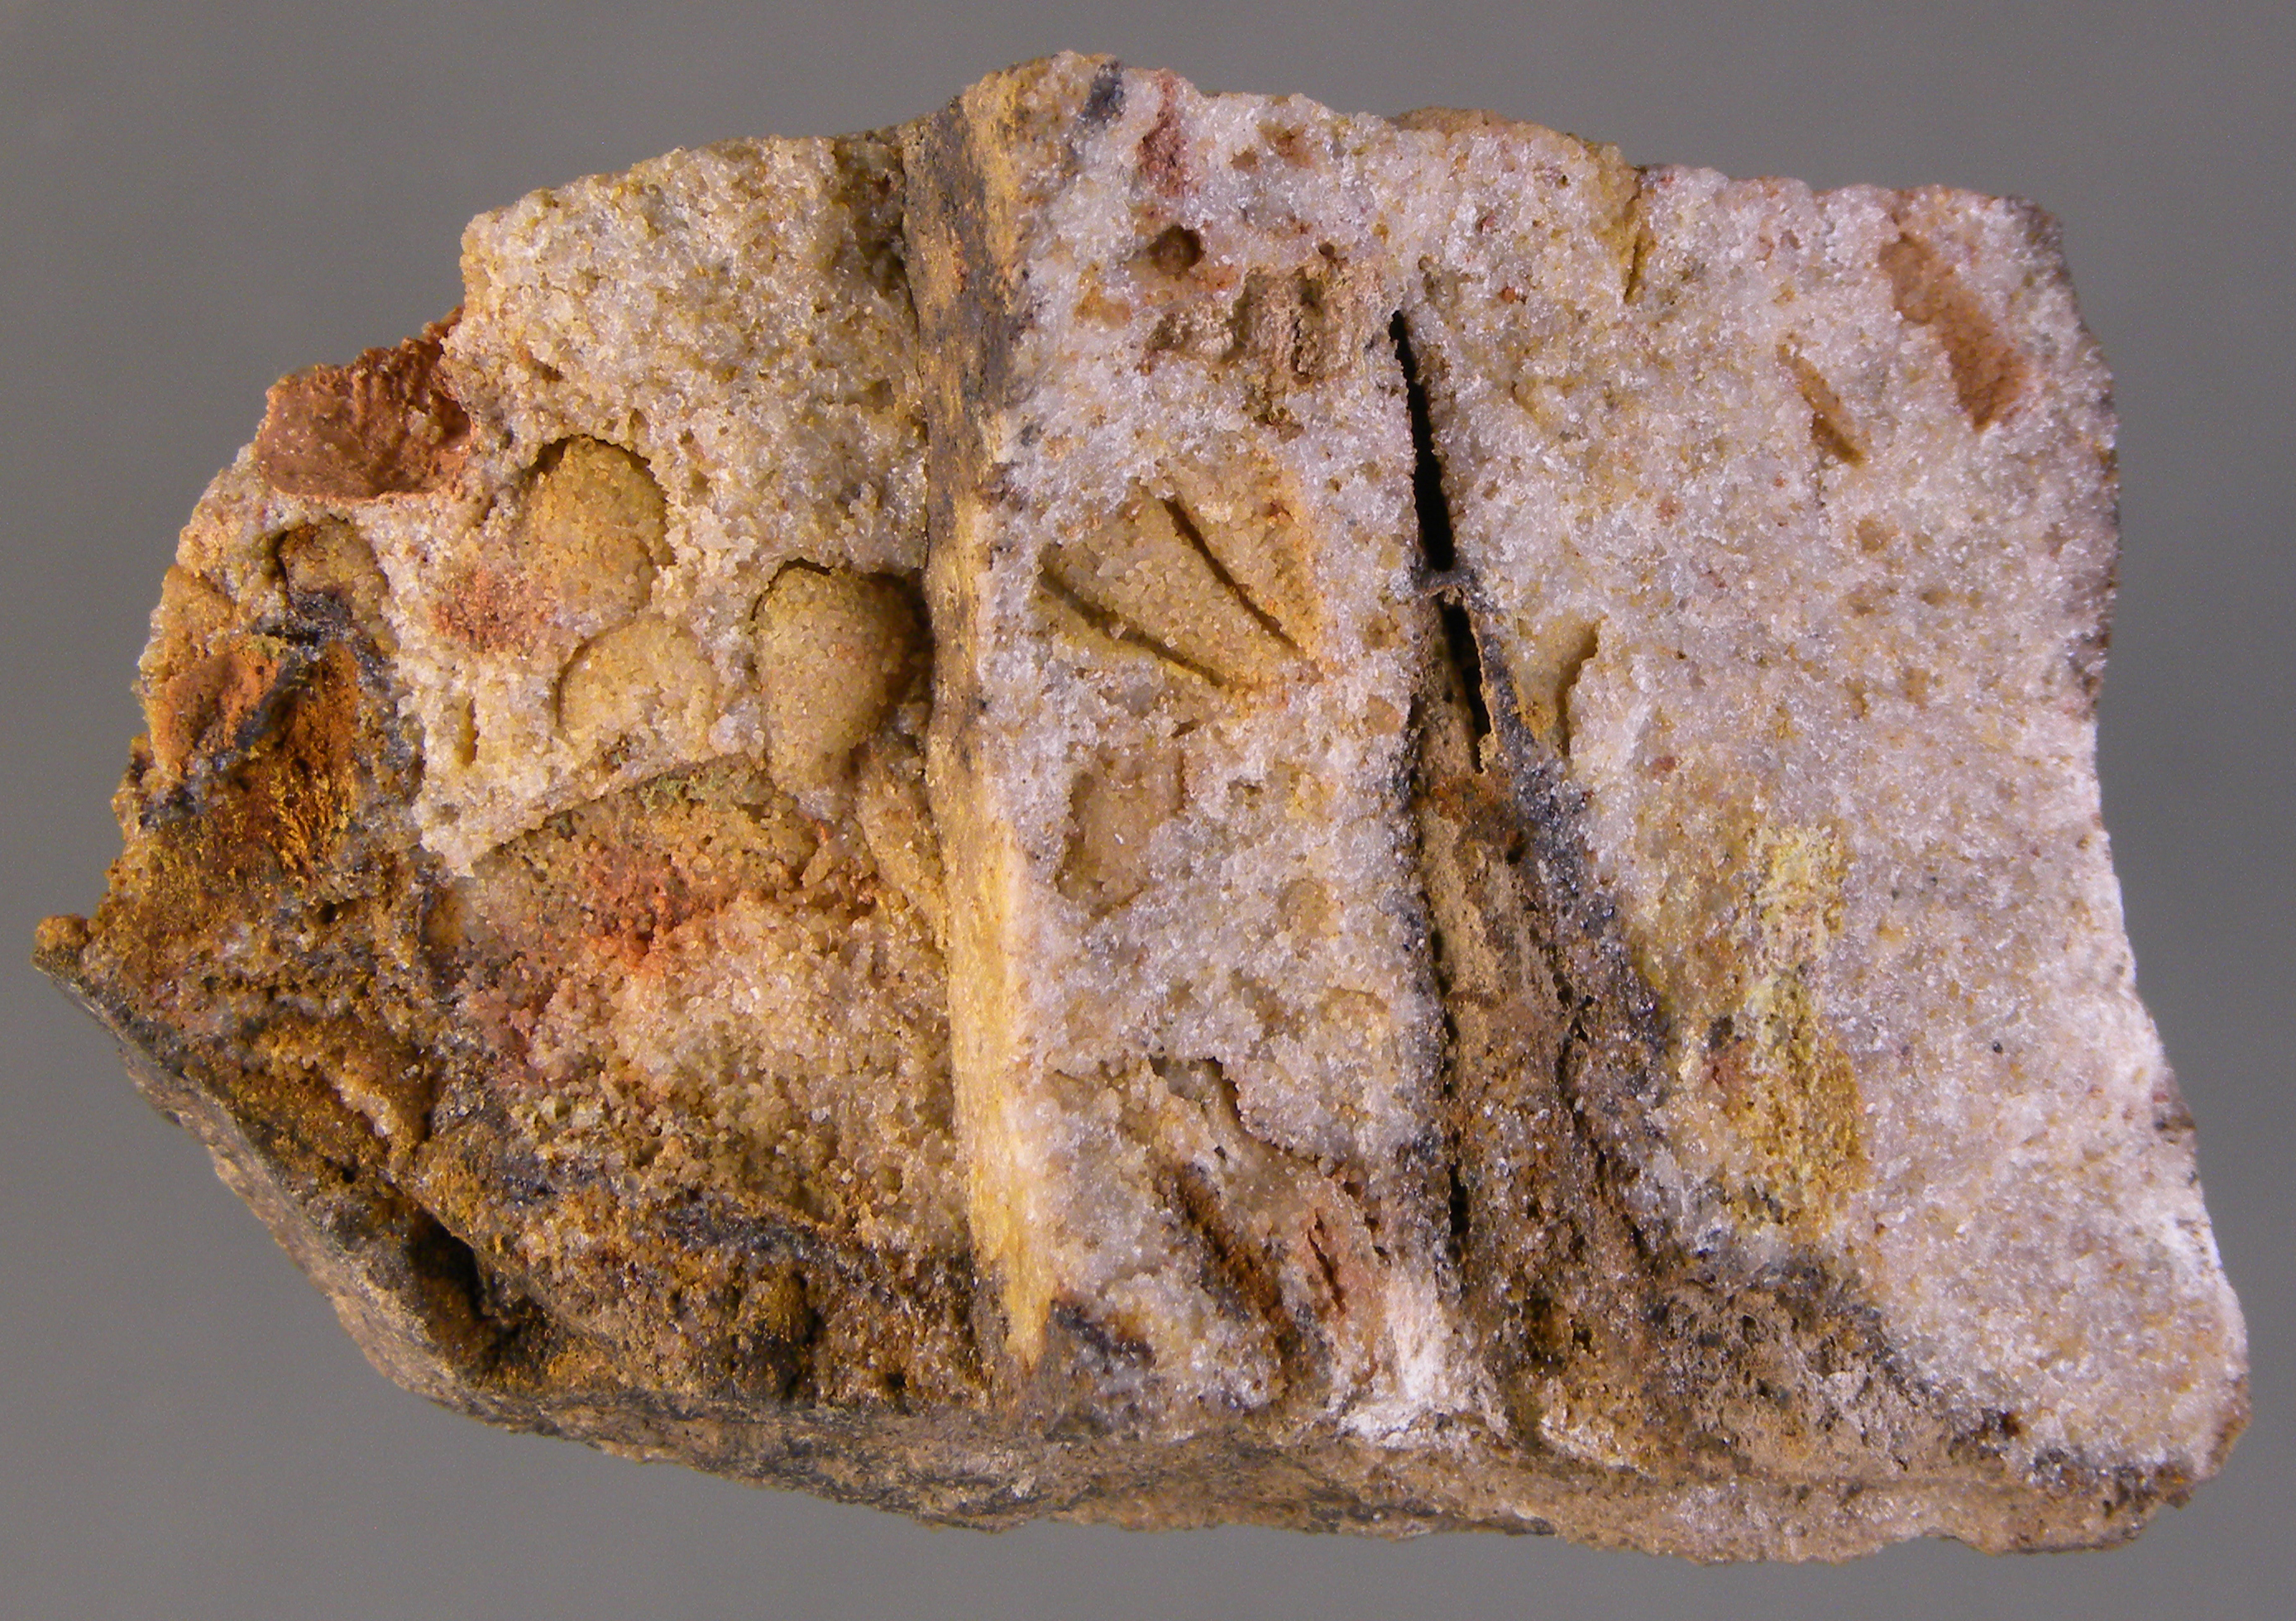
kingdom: Animalia
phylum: Mollusca
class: Bivalvia
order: Megalodontida
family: Prosocoelidae
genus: Prosocoelus
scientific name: Prosocoelus
